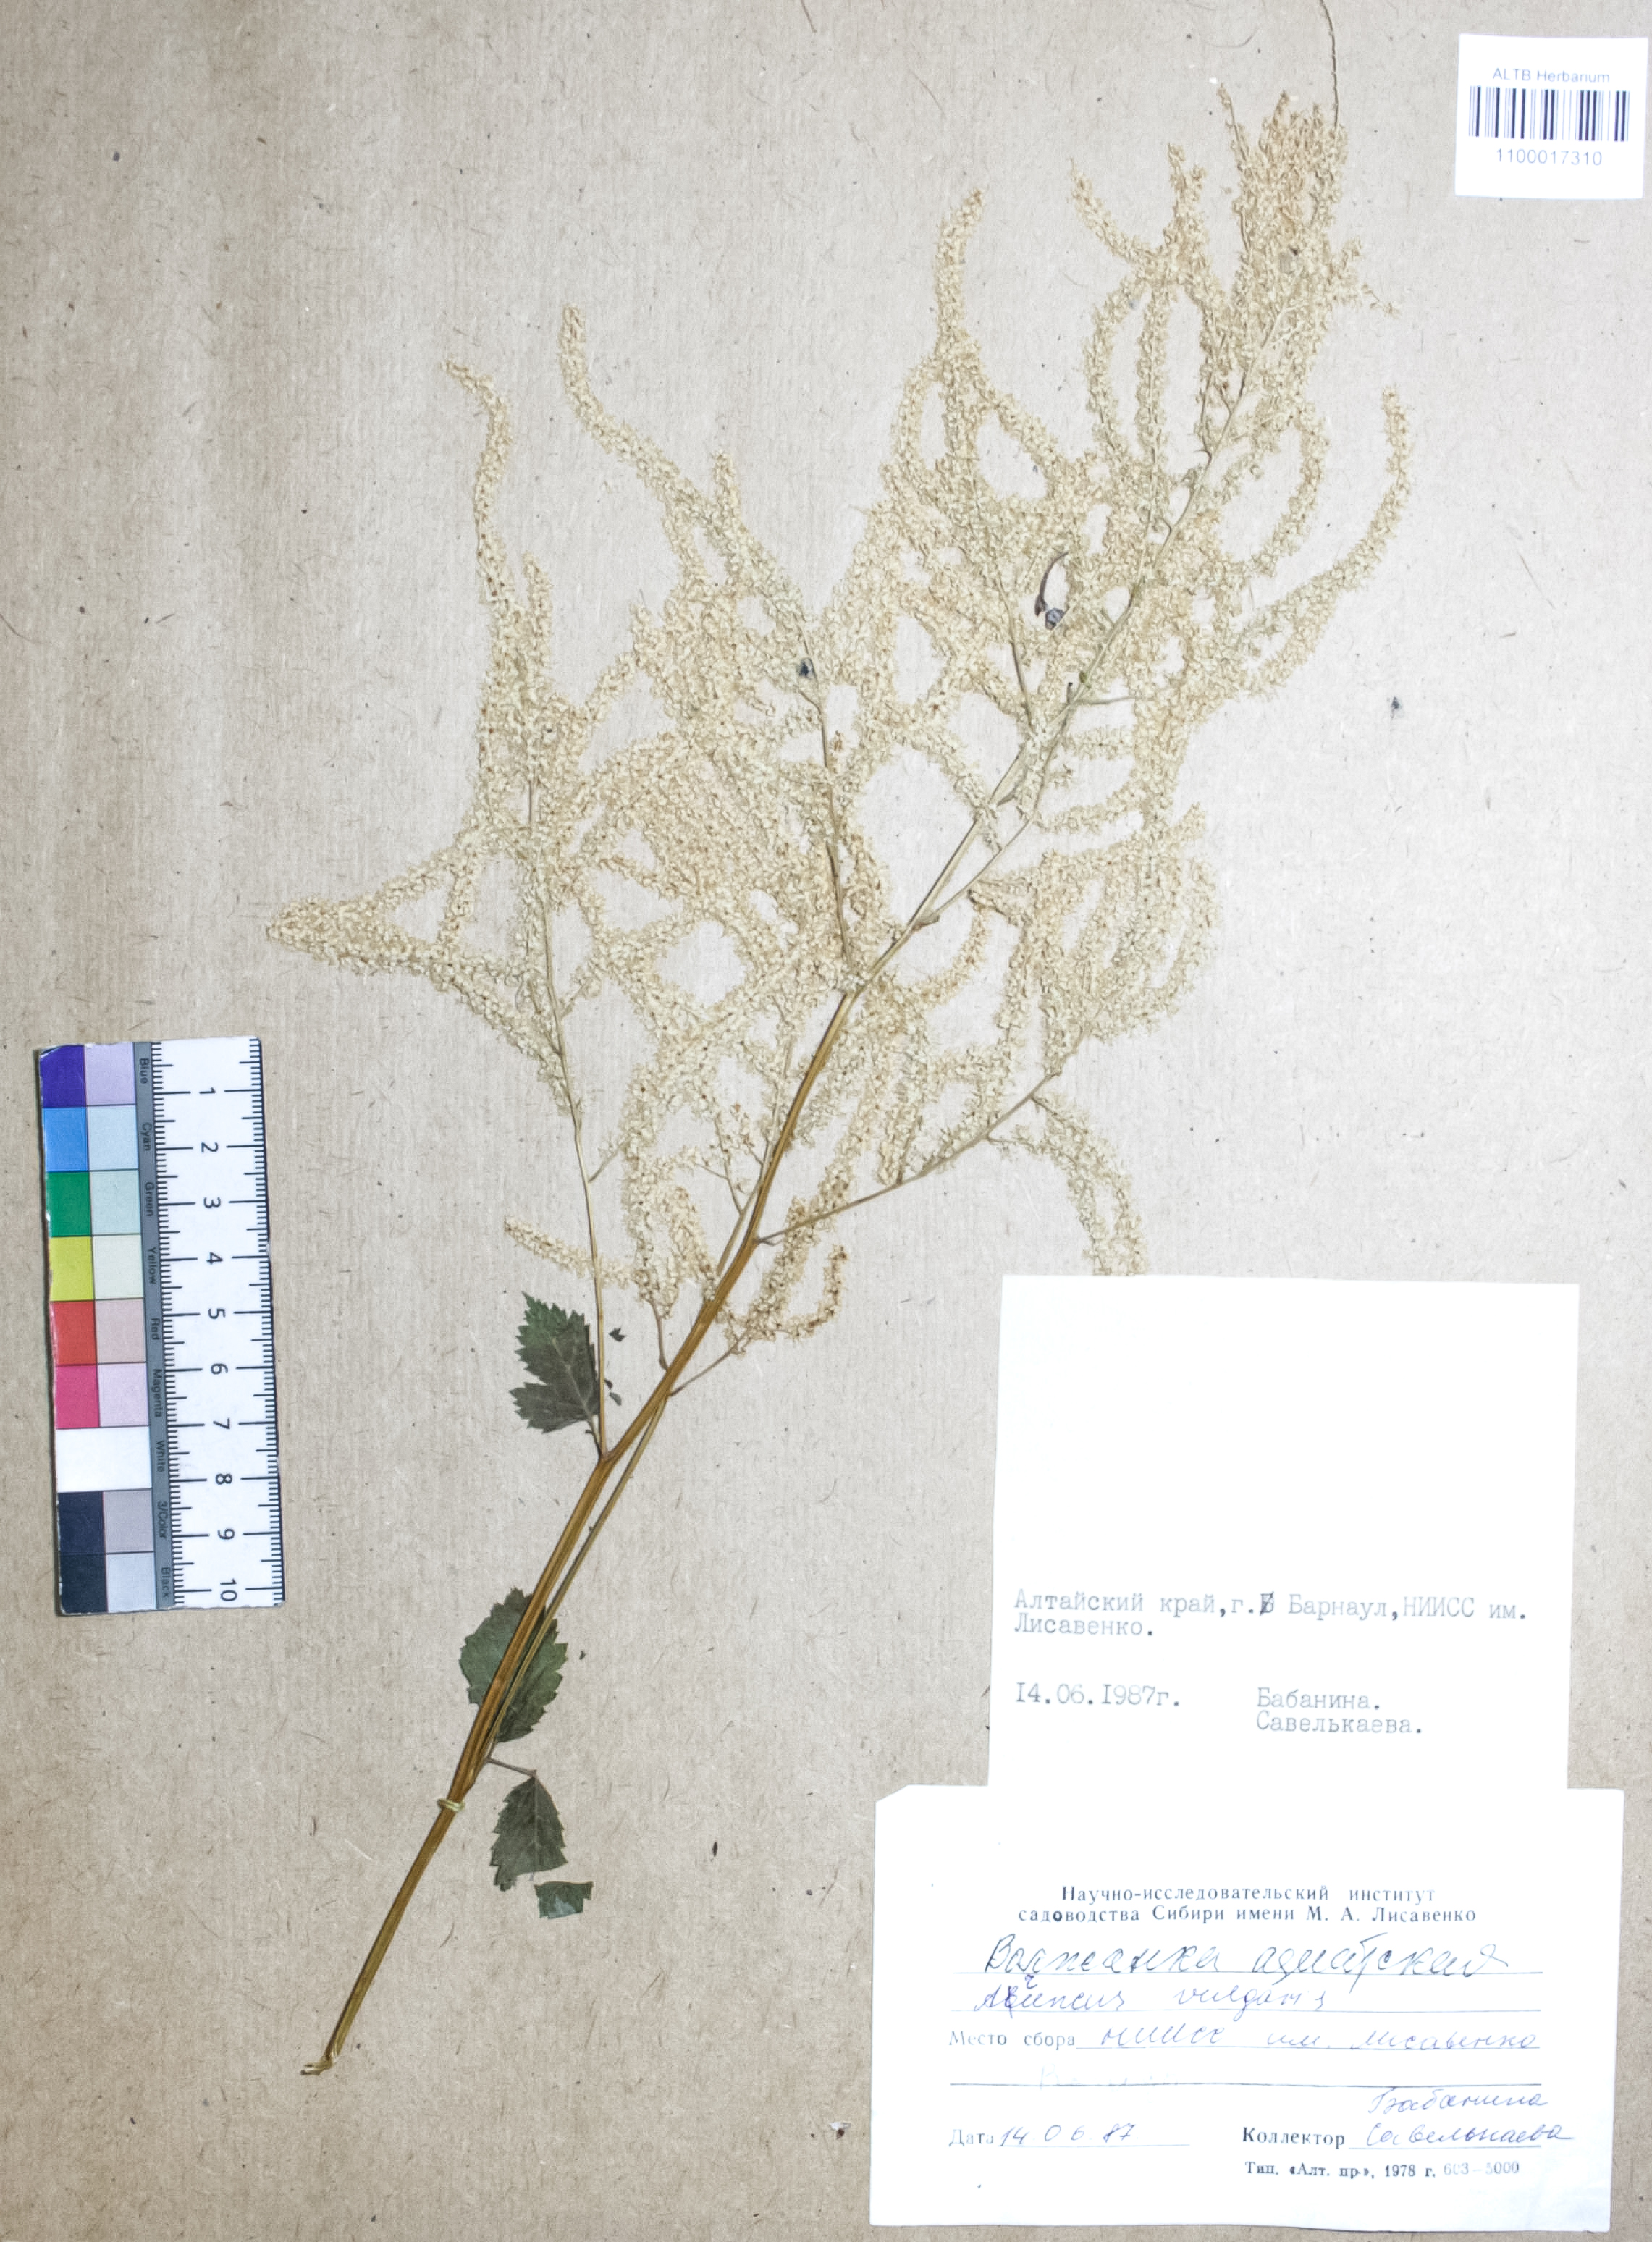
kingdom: Plantae
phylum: Tracheophyta
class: Magnoliopsida
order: Rosales
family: Rosaceae
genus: Aruncus
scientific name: Aruncus
